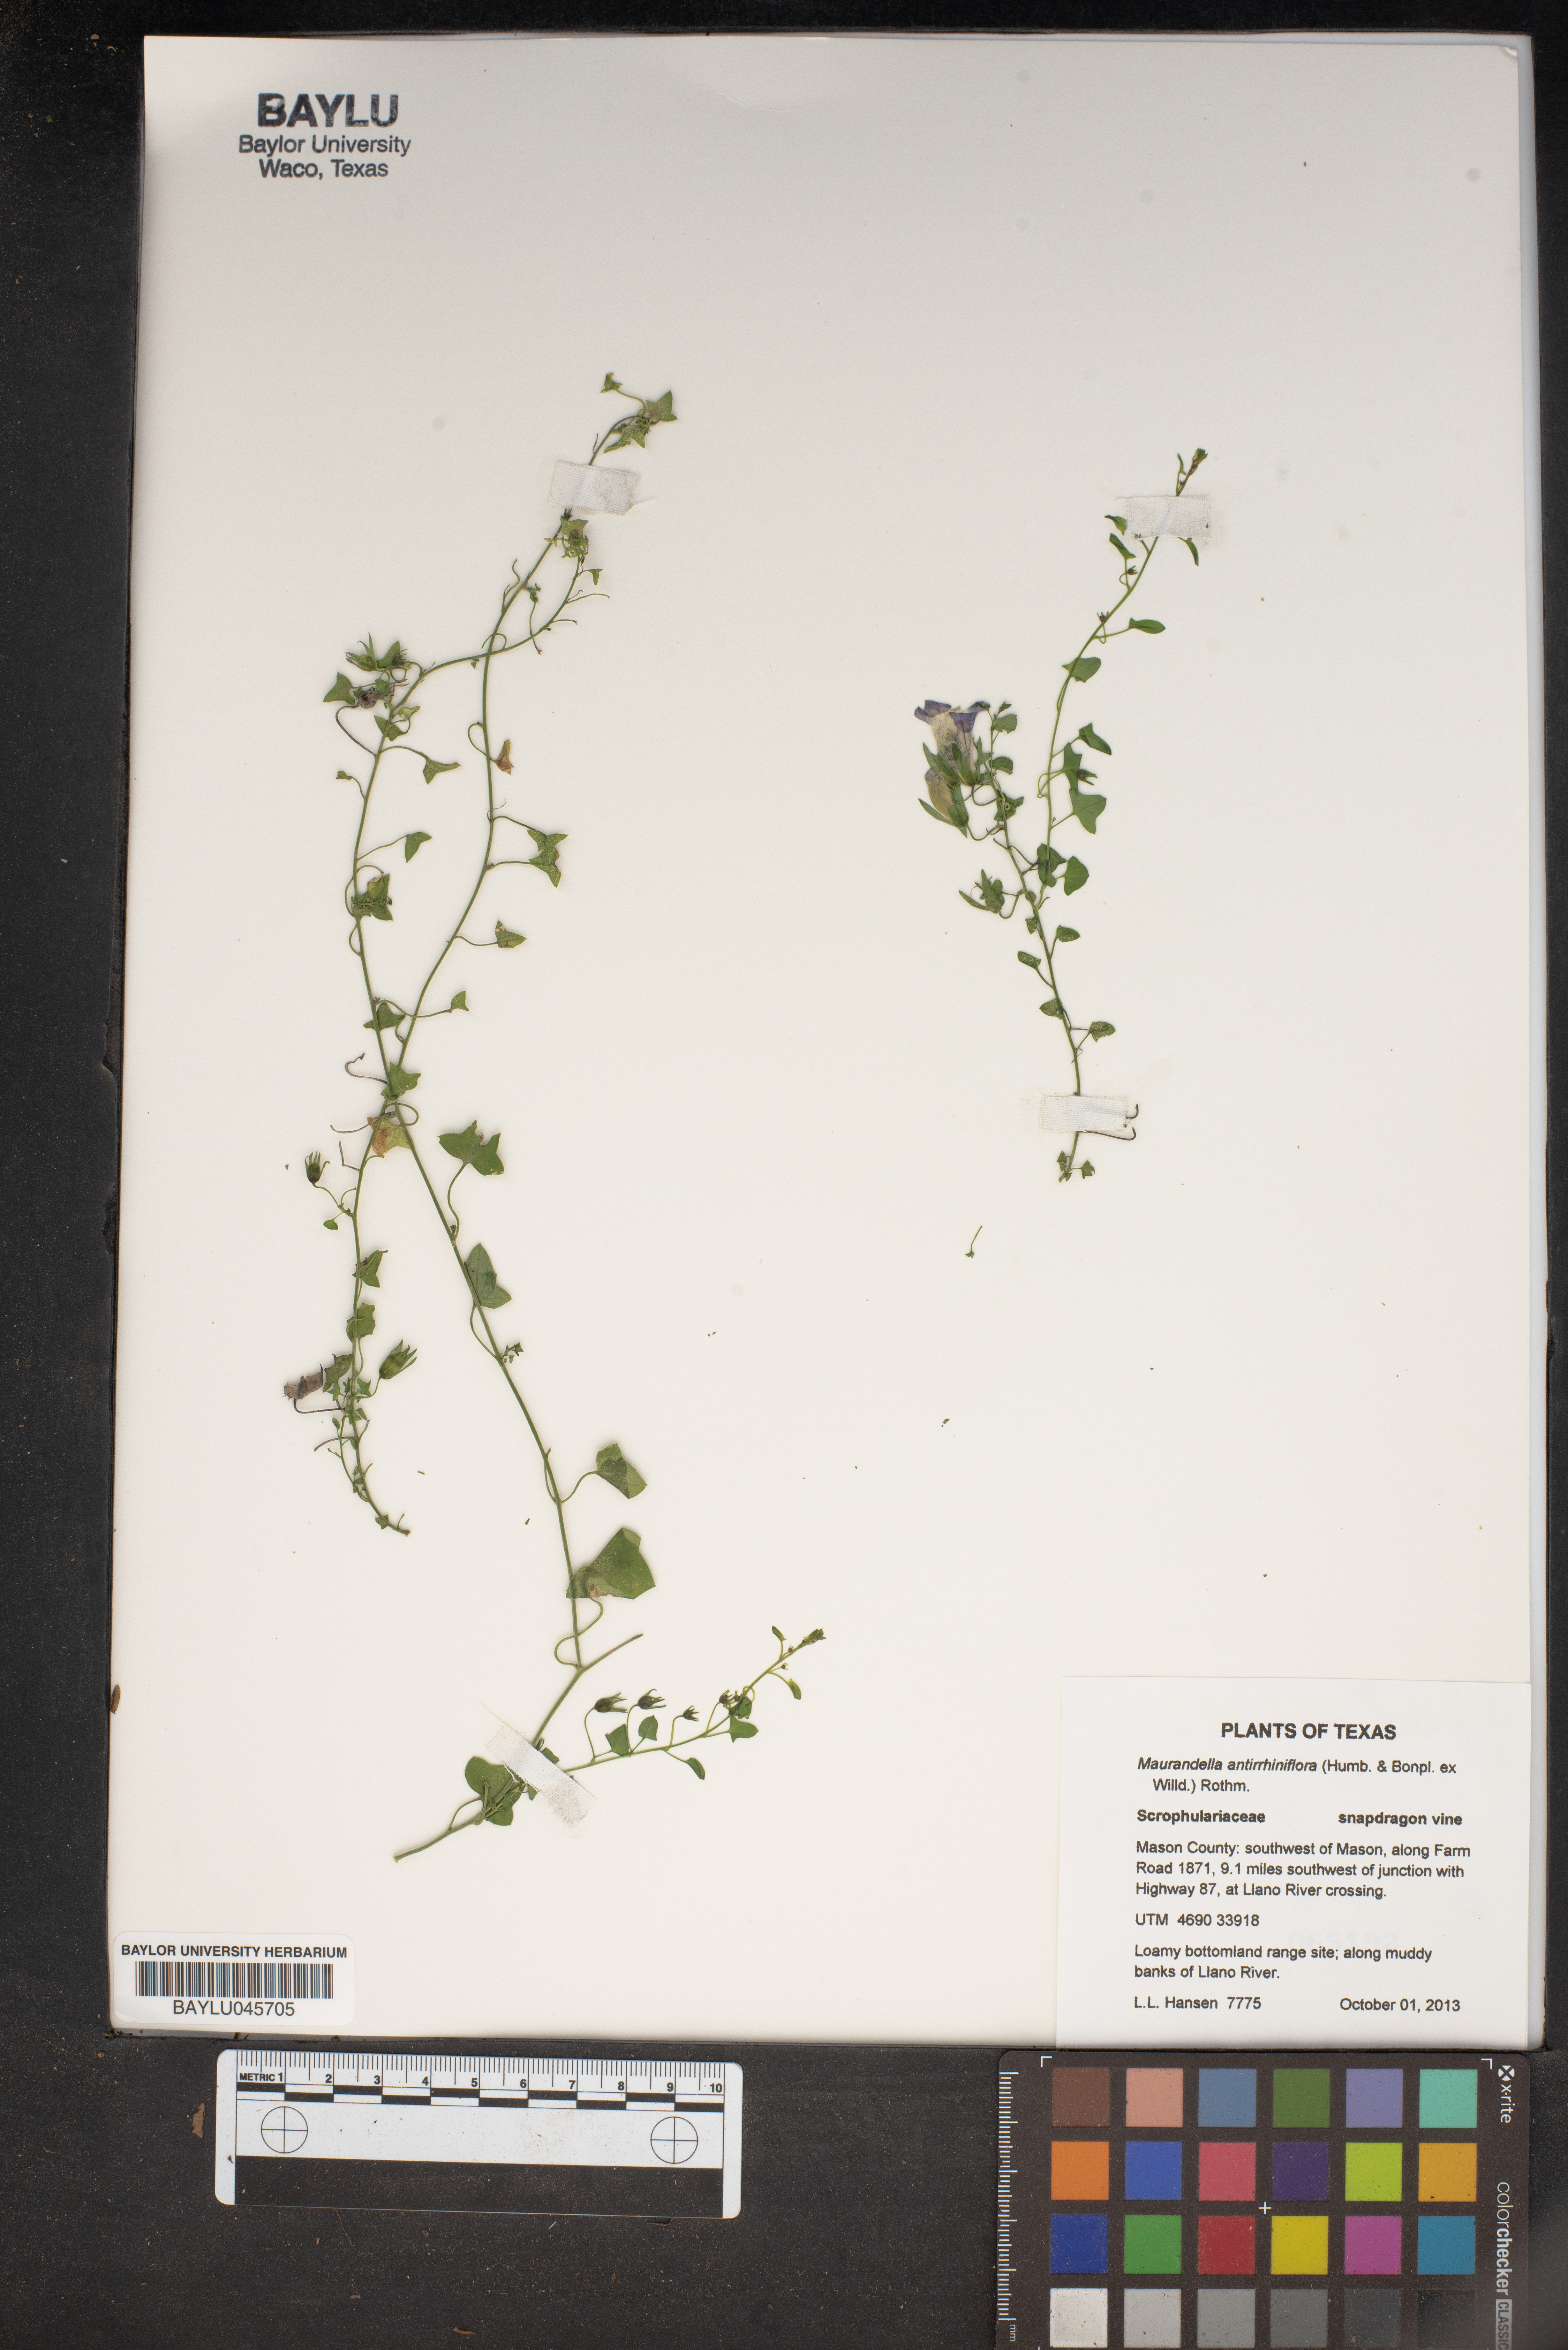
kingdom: Plantae
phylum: Tracheophyta
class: Magnoliopsida
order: Lamiales
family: Plantaginaceae
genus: Maurandella
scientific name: Maurandella antirrhiniflora
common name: Violet twining-snapdragon
